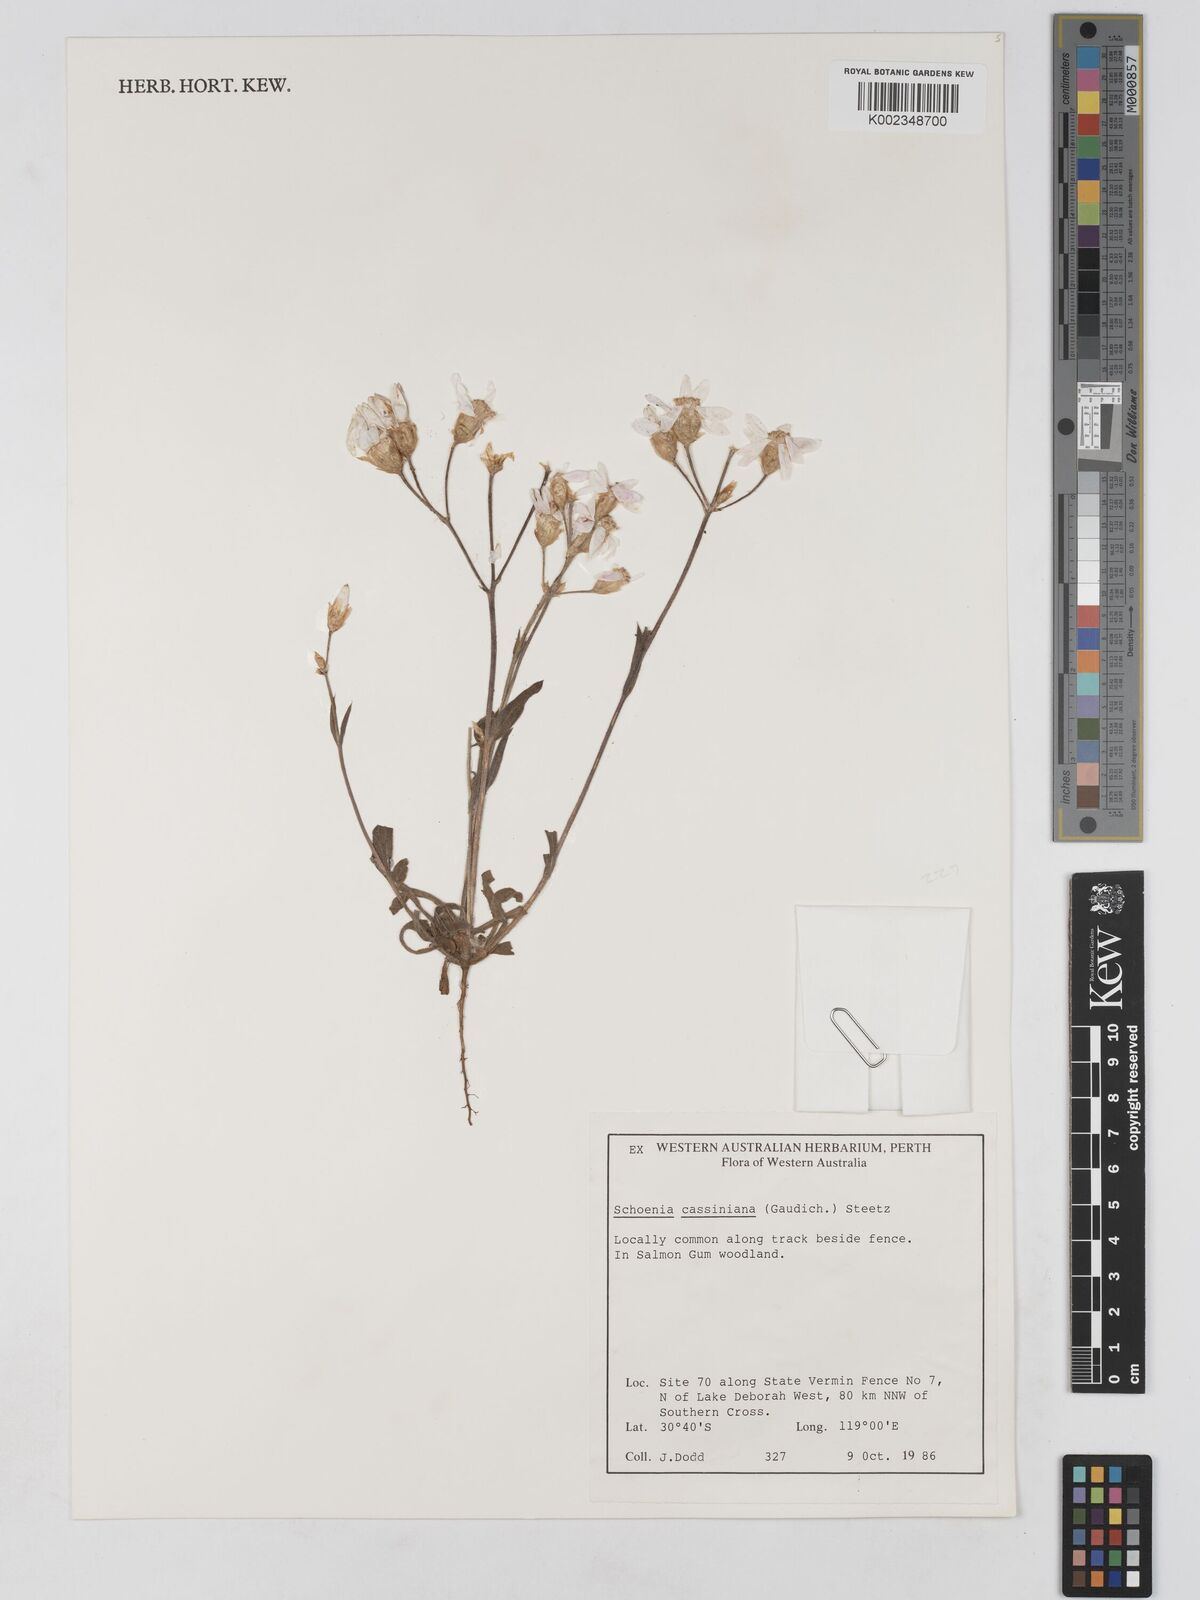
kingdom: Plantae
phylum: Tracheophyta
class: Magnoliopsida
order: Asterales
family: Asteraceae
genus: Schoenia
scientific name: Schoenia cassiniana
